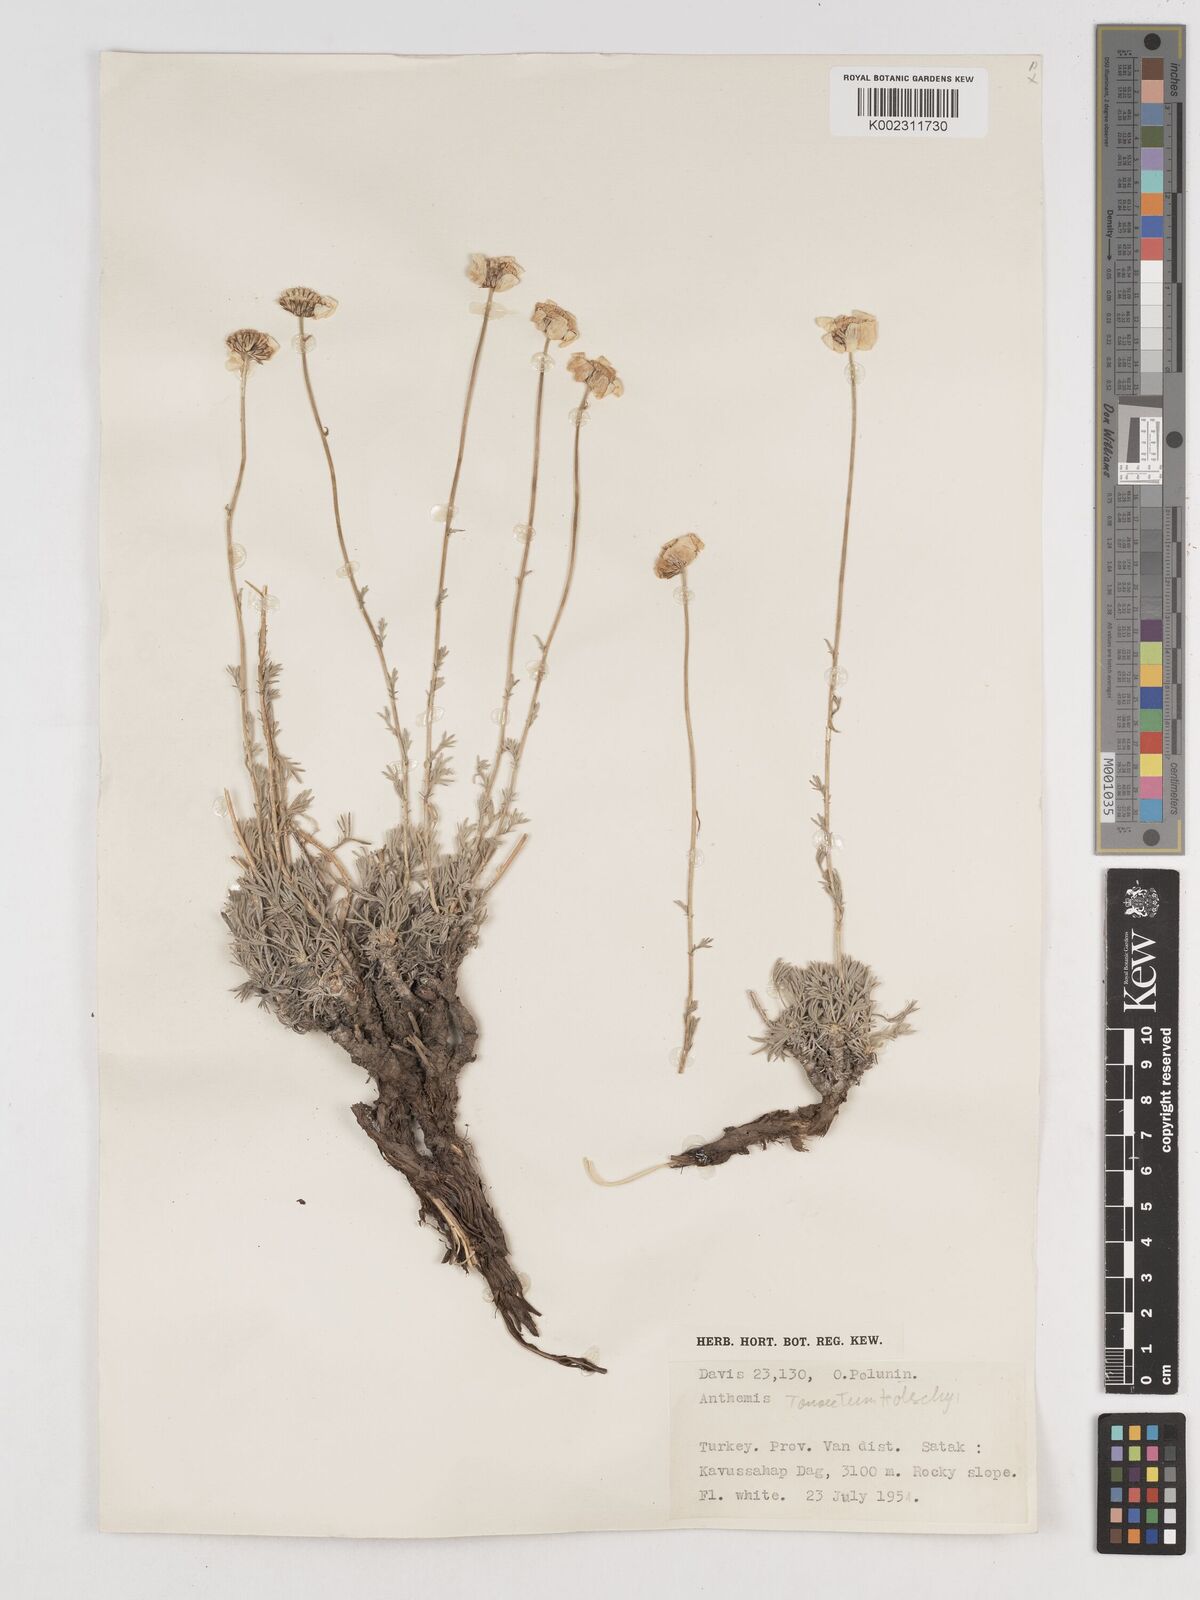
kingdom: Plantae
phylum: Tracheophyta
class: Magnoliopsida
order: Asterales
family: Asteraceae
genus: Tanacetum
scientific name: Tanacetum kotschyi
